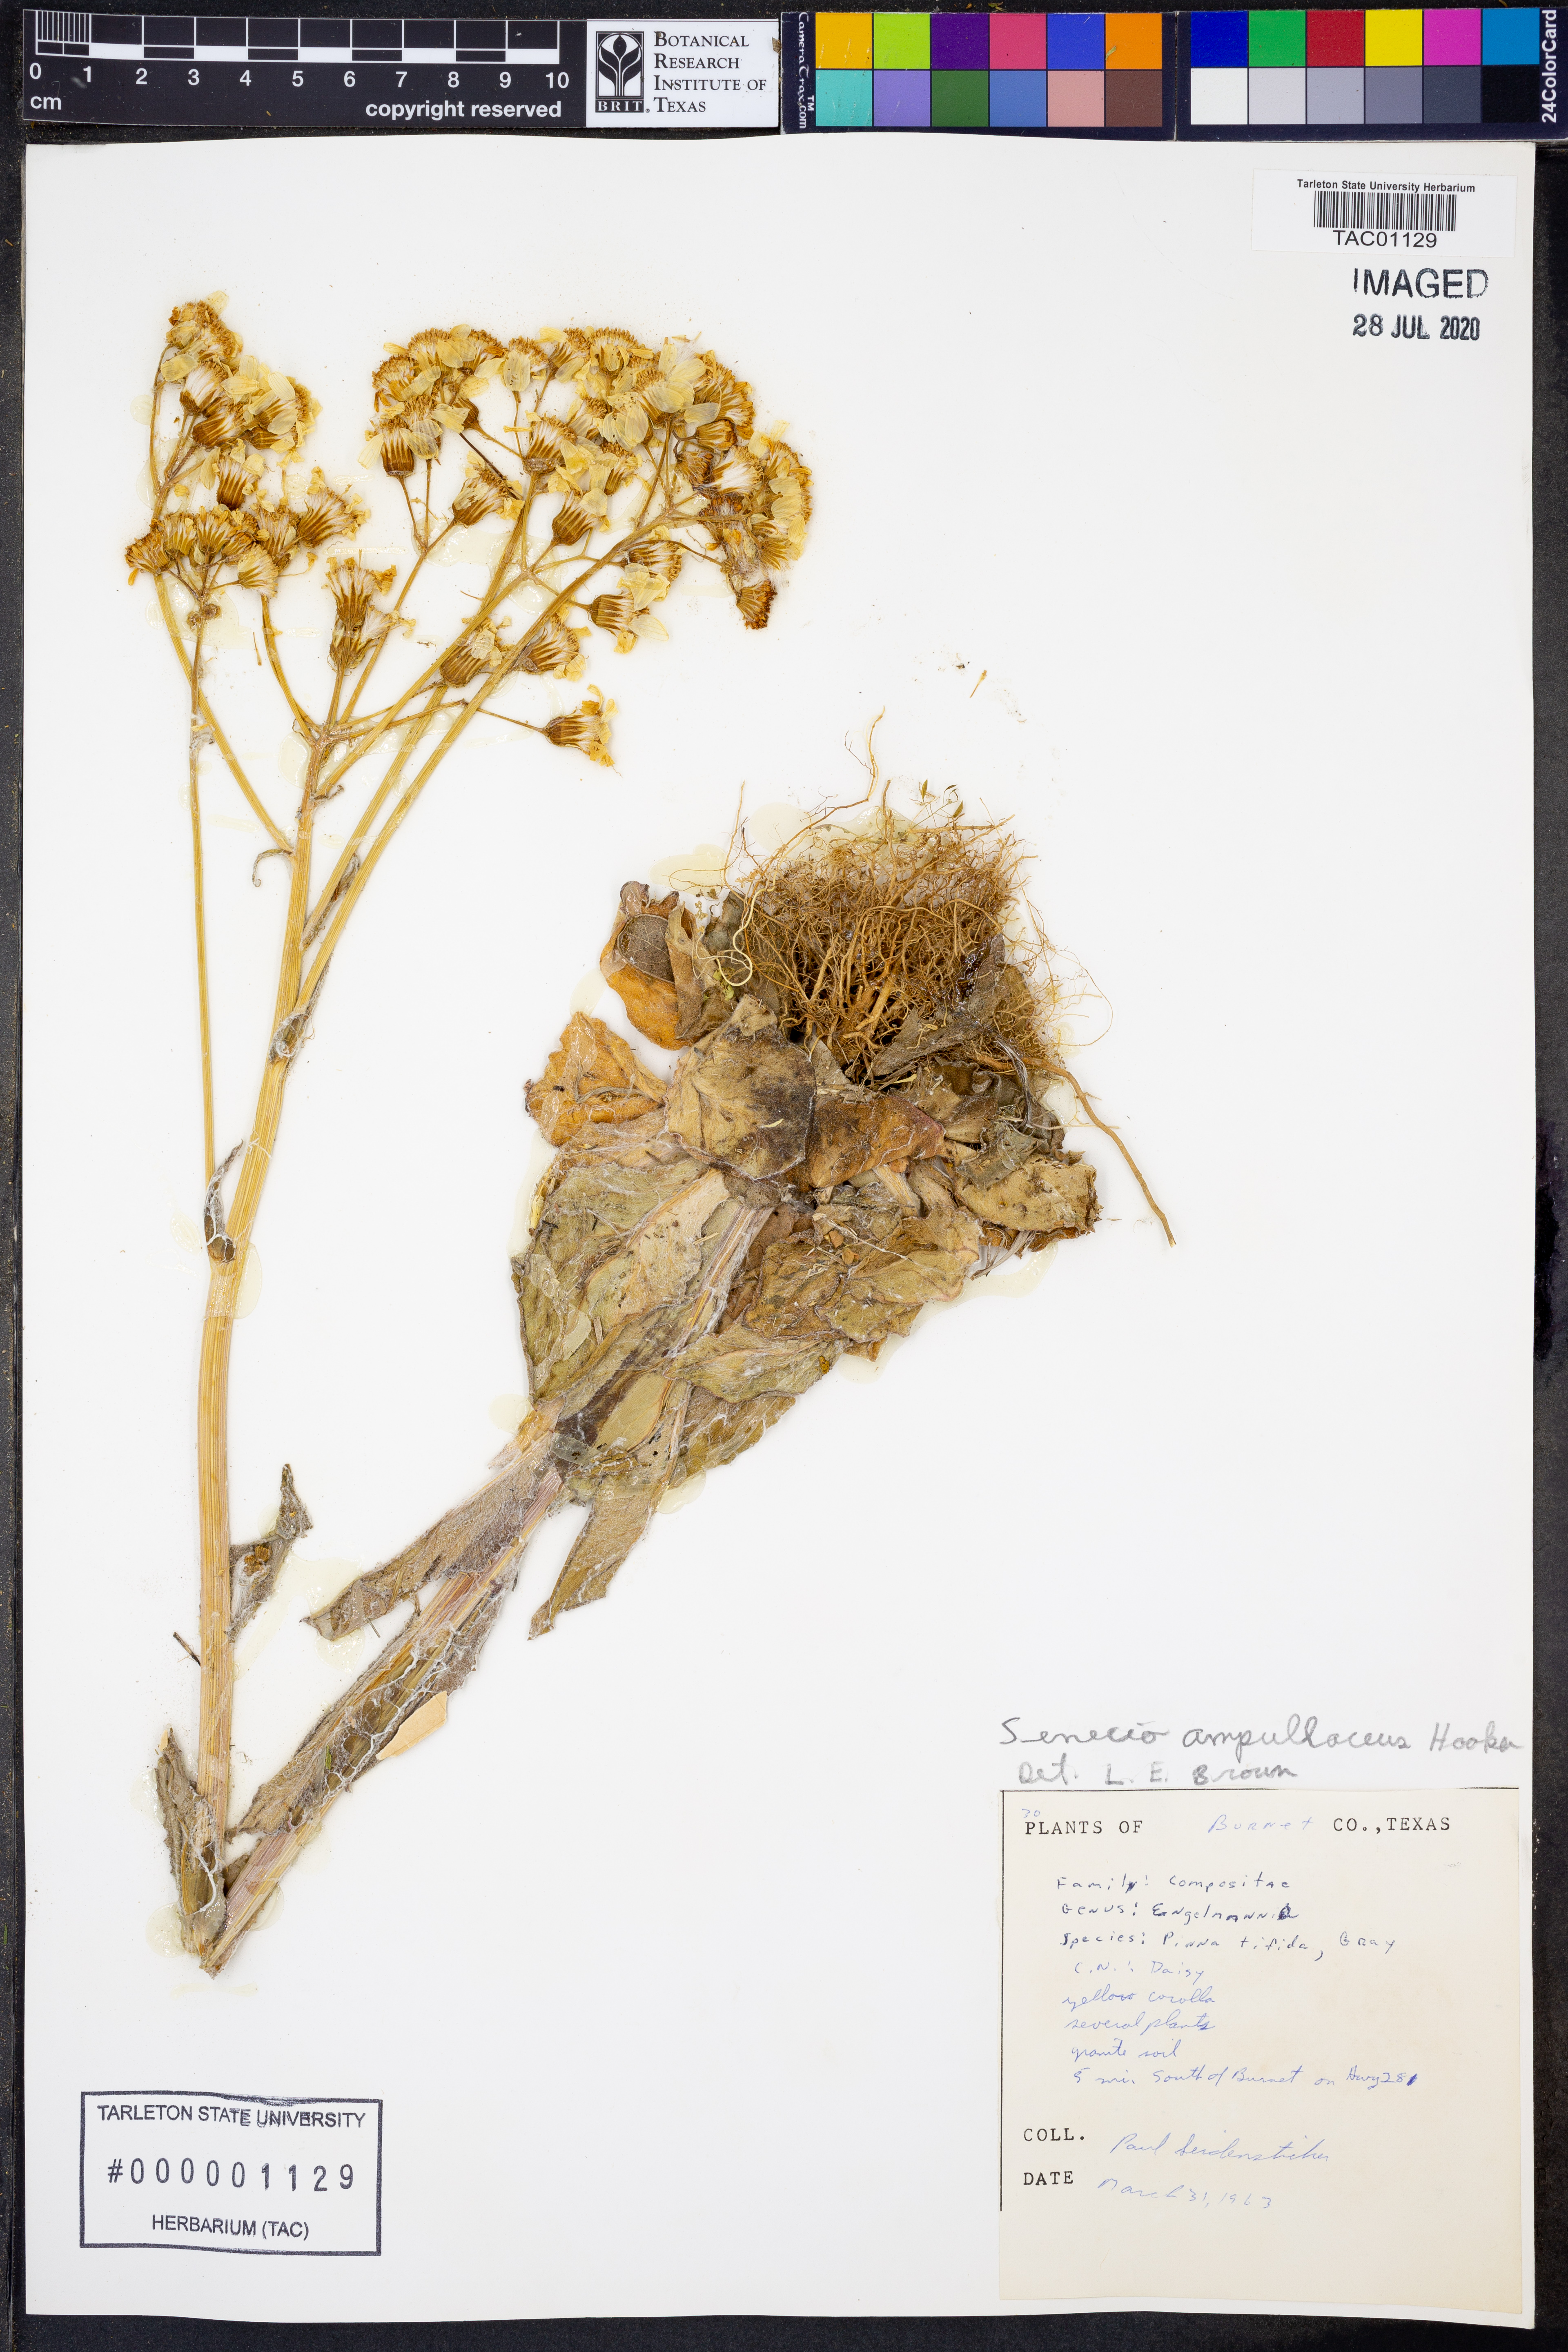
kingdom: Plantae
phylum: Tracheophyta
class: Magnoliopsida
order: Asterales
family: Asteraceae
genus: Senecio
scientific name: Senecio ampullaceus
